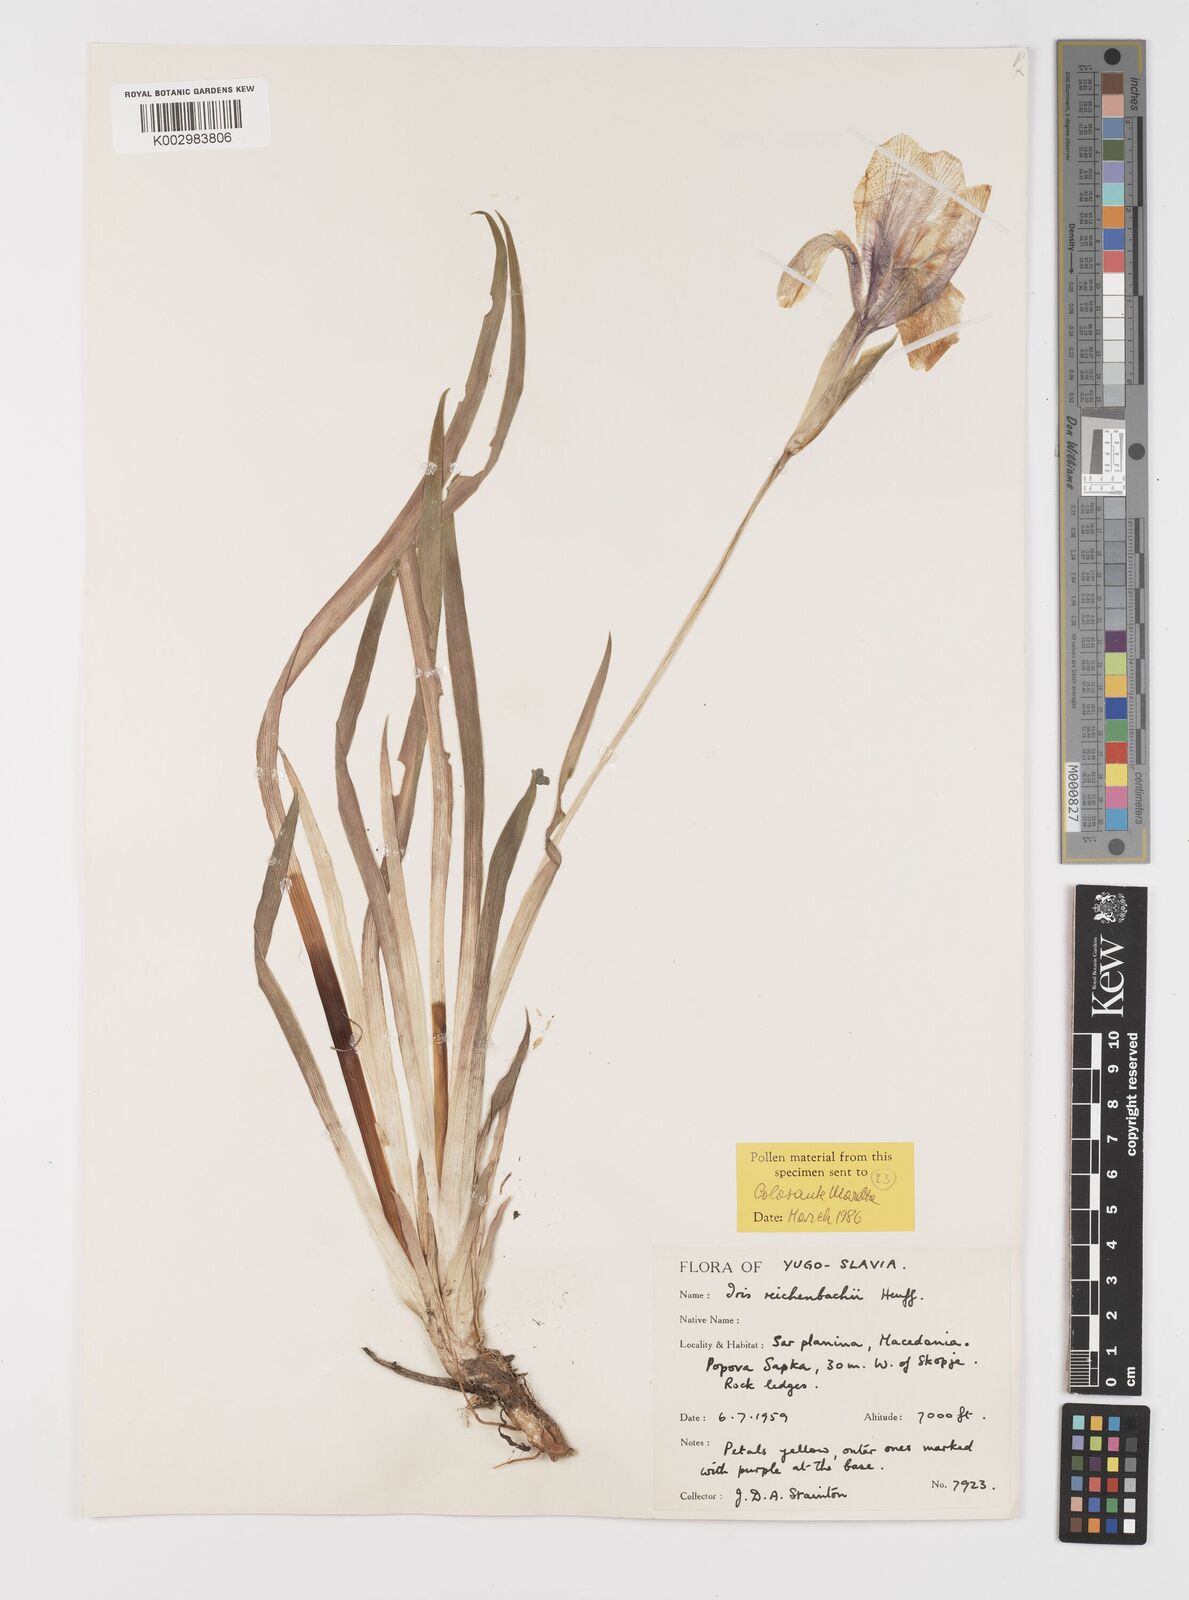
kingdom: Plantae
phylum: Tracheophyta
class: Liliopsida
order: Asparagales
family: Iridaceae
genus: Iris
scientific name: Iris reichenbachii
